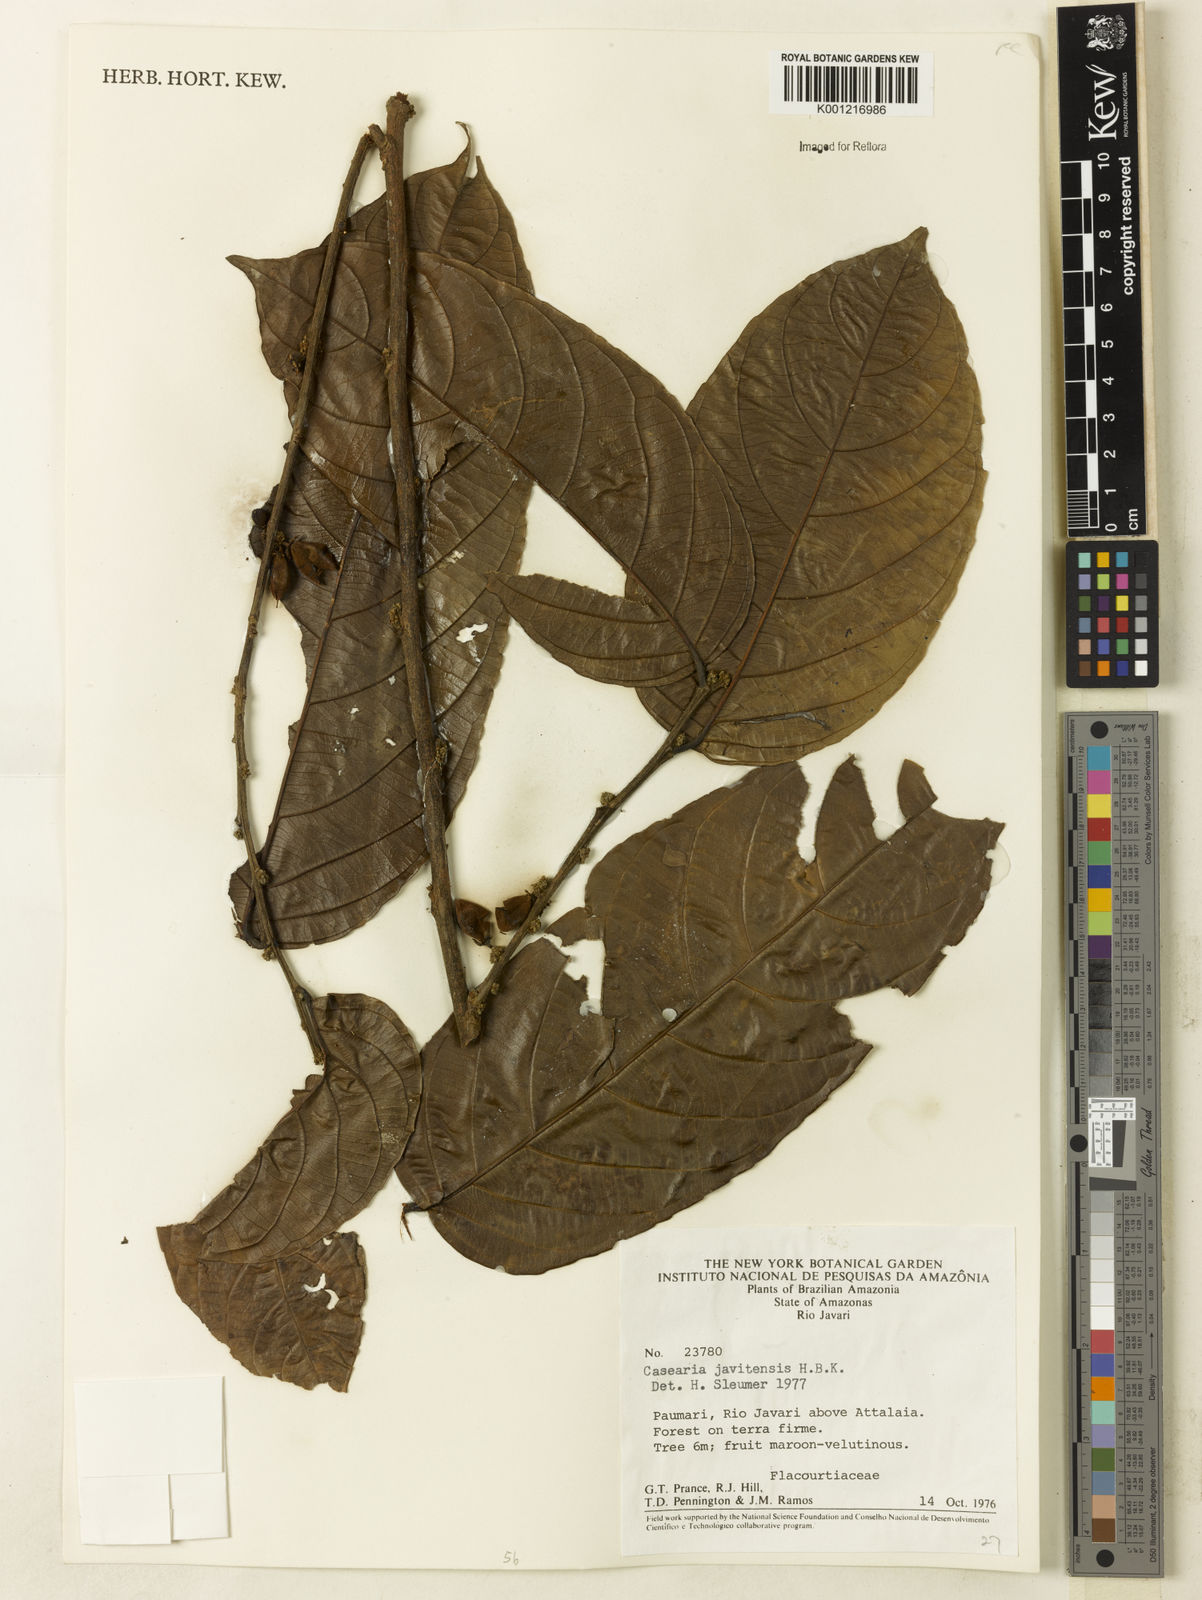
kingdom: Plantae
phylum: Tracheophyta
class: Magnoliopsida
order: Malpighiales
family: Salicaceae
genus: Piparea
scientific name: Piparea multiflora
